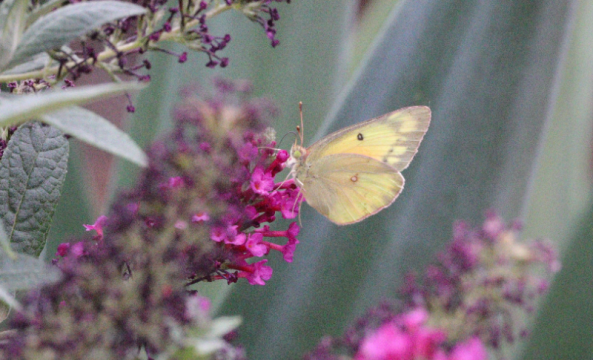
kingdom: Animalia
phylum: Arthropoda
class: Insecta
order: Lepidoptera
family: Pieridae
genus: Colias
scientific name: Colias eurytheme
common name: Orange Sulphur
